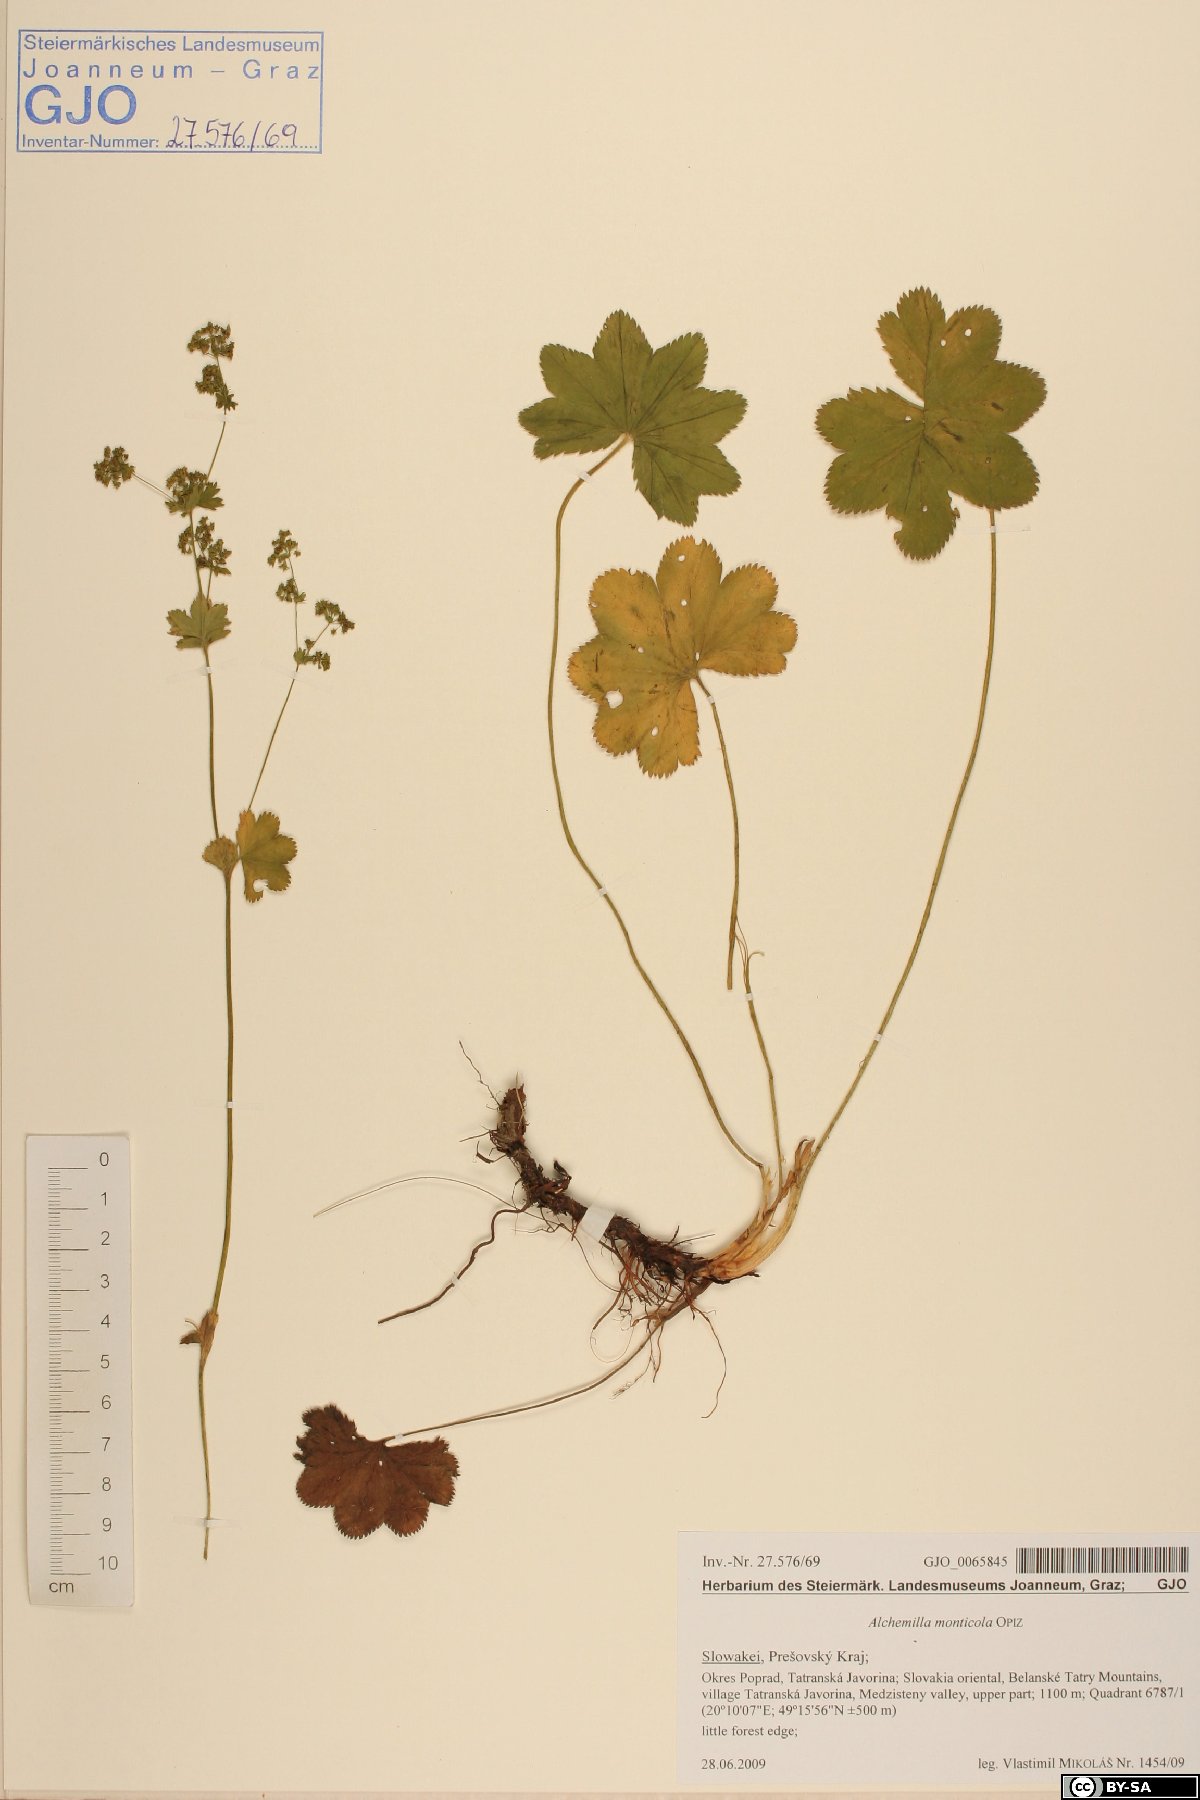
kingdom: Plantae
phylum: Tracheophyta
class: Magnoliopsida
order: Rosales
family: Rosaceae
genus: Alchemilla
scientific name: Alchemilla monticola
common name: Hairy lady's mantle
